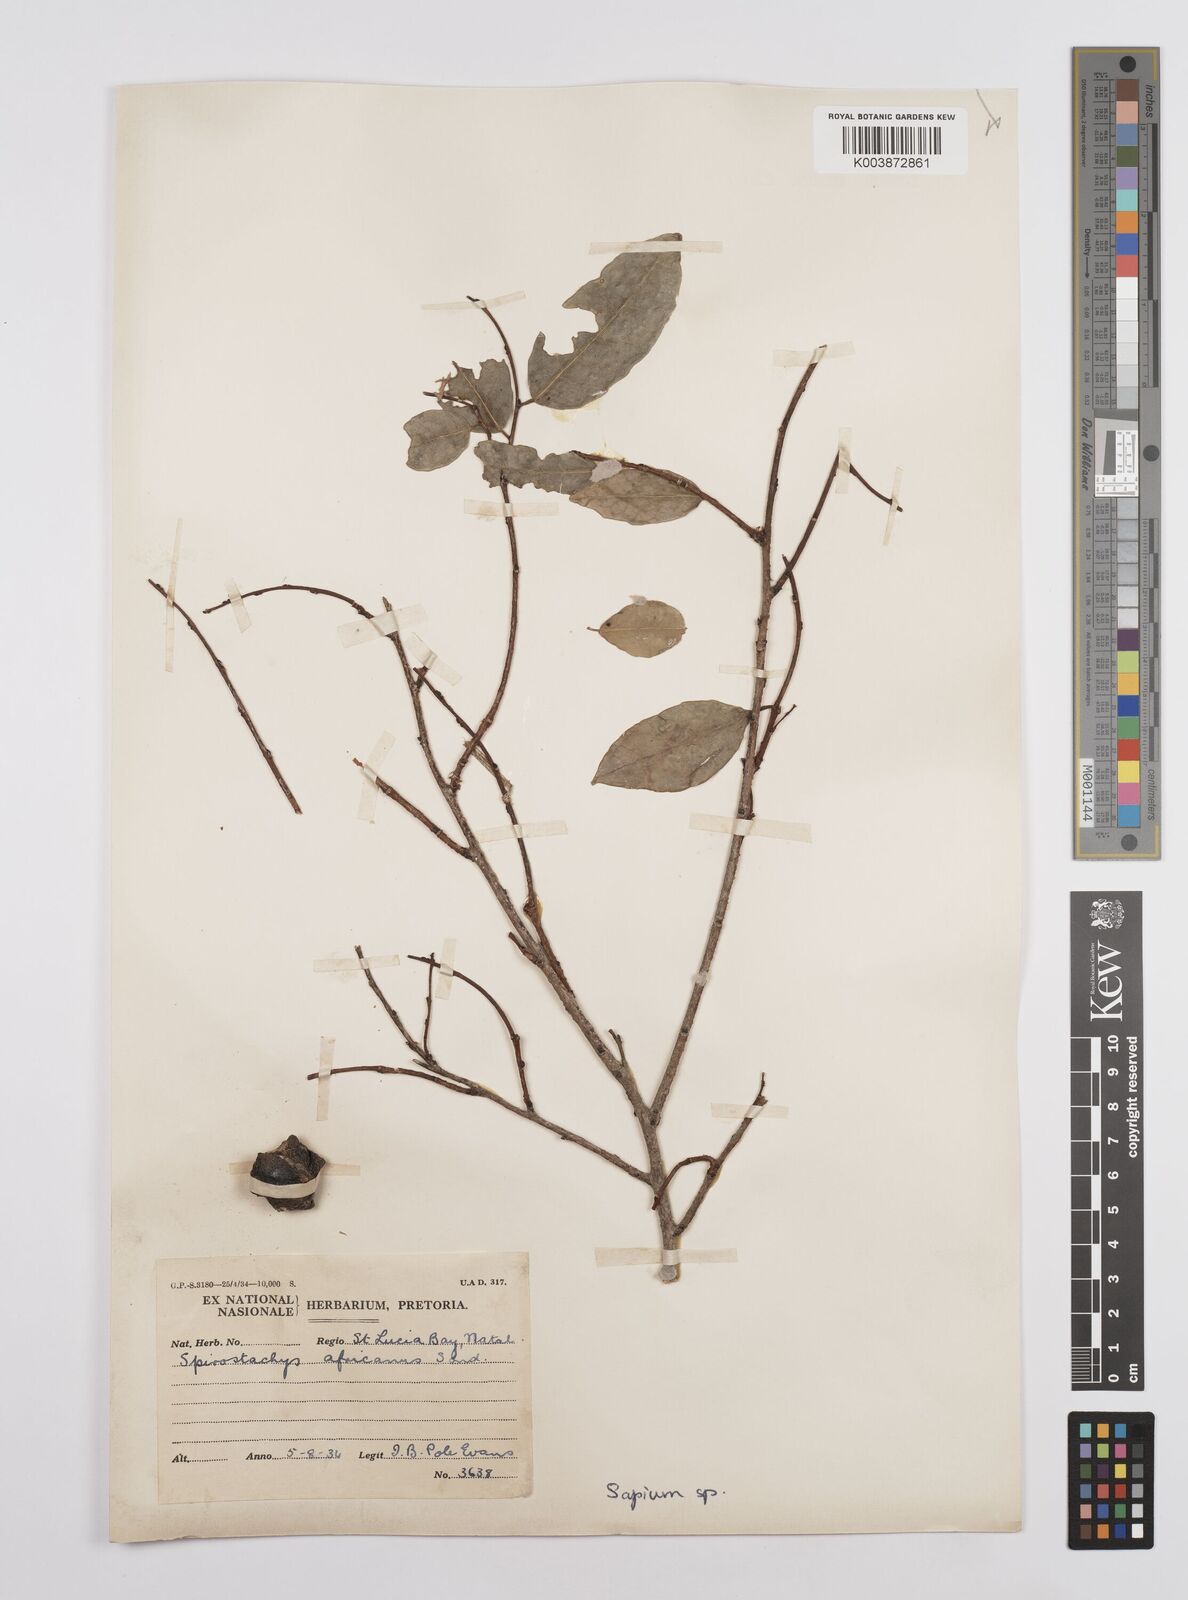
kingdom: Plantae
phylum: Tracheophyta
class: Magnoliopsida
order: Malpighiales
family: Euphorbiaceae
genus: Sclerocroton
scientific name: Sclerocroton integerrimus
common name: Duiker berry
